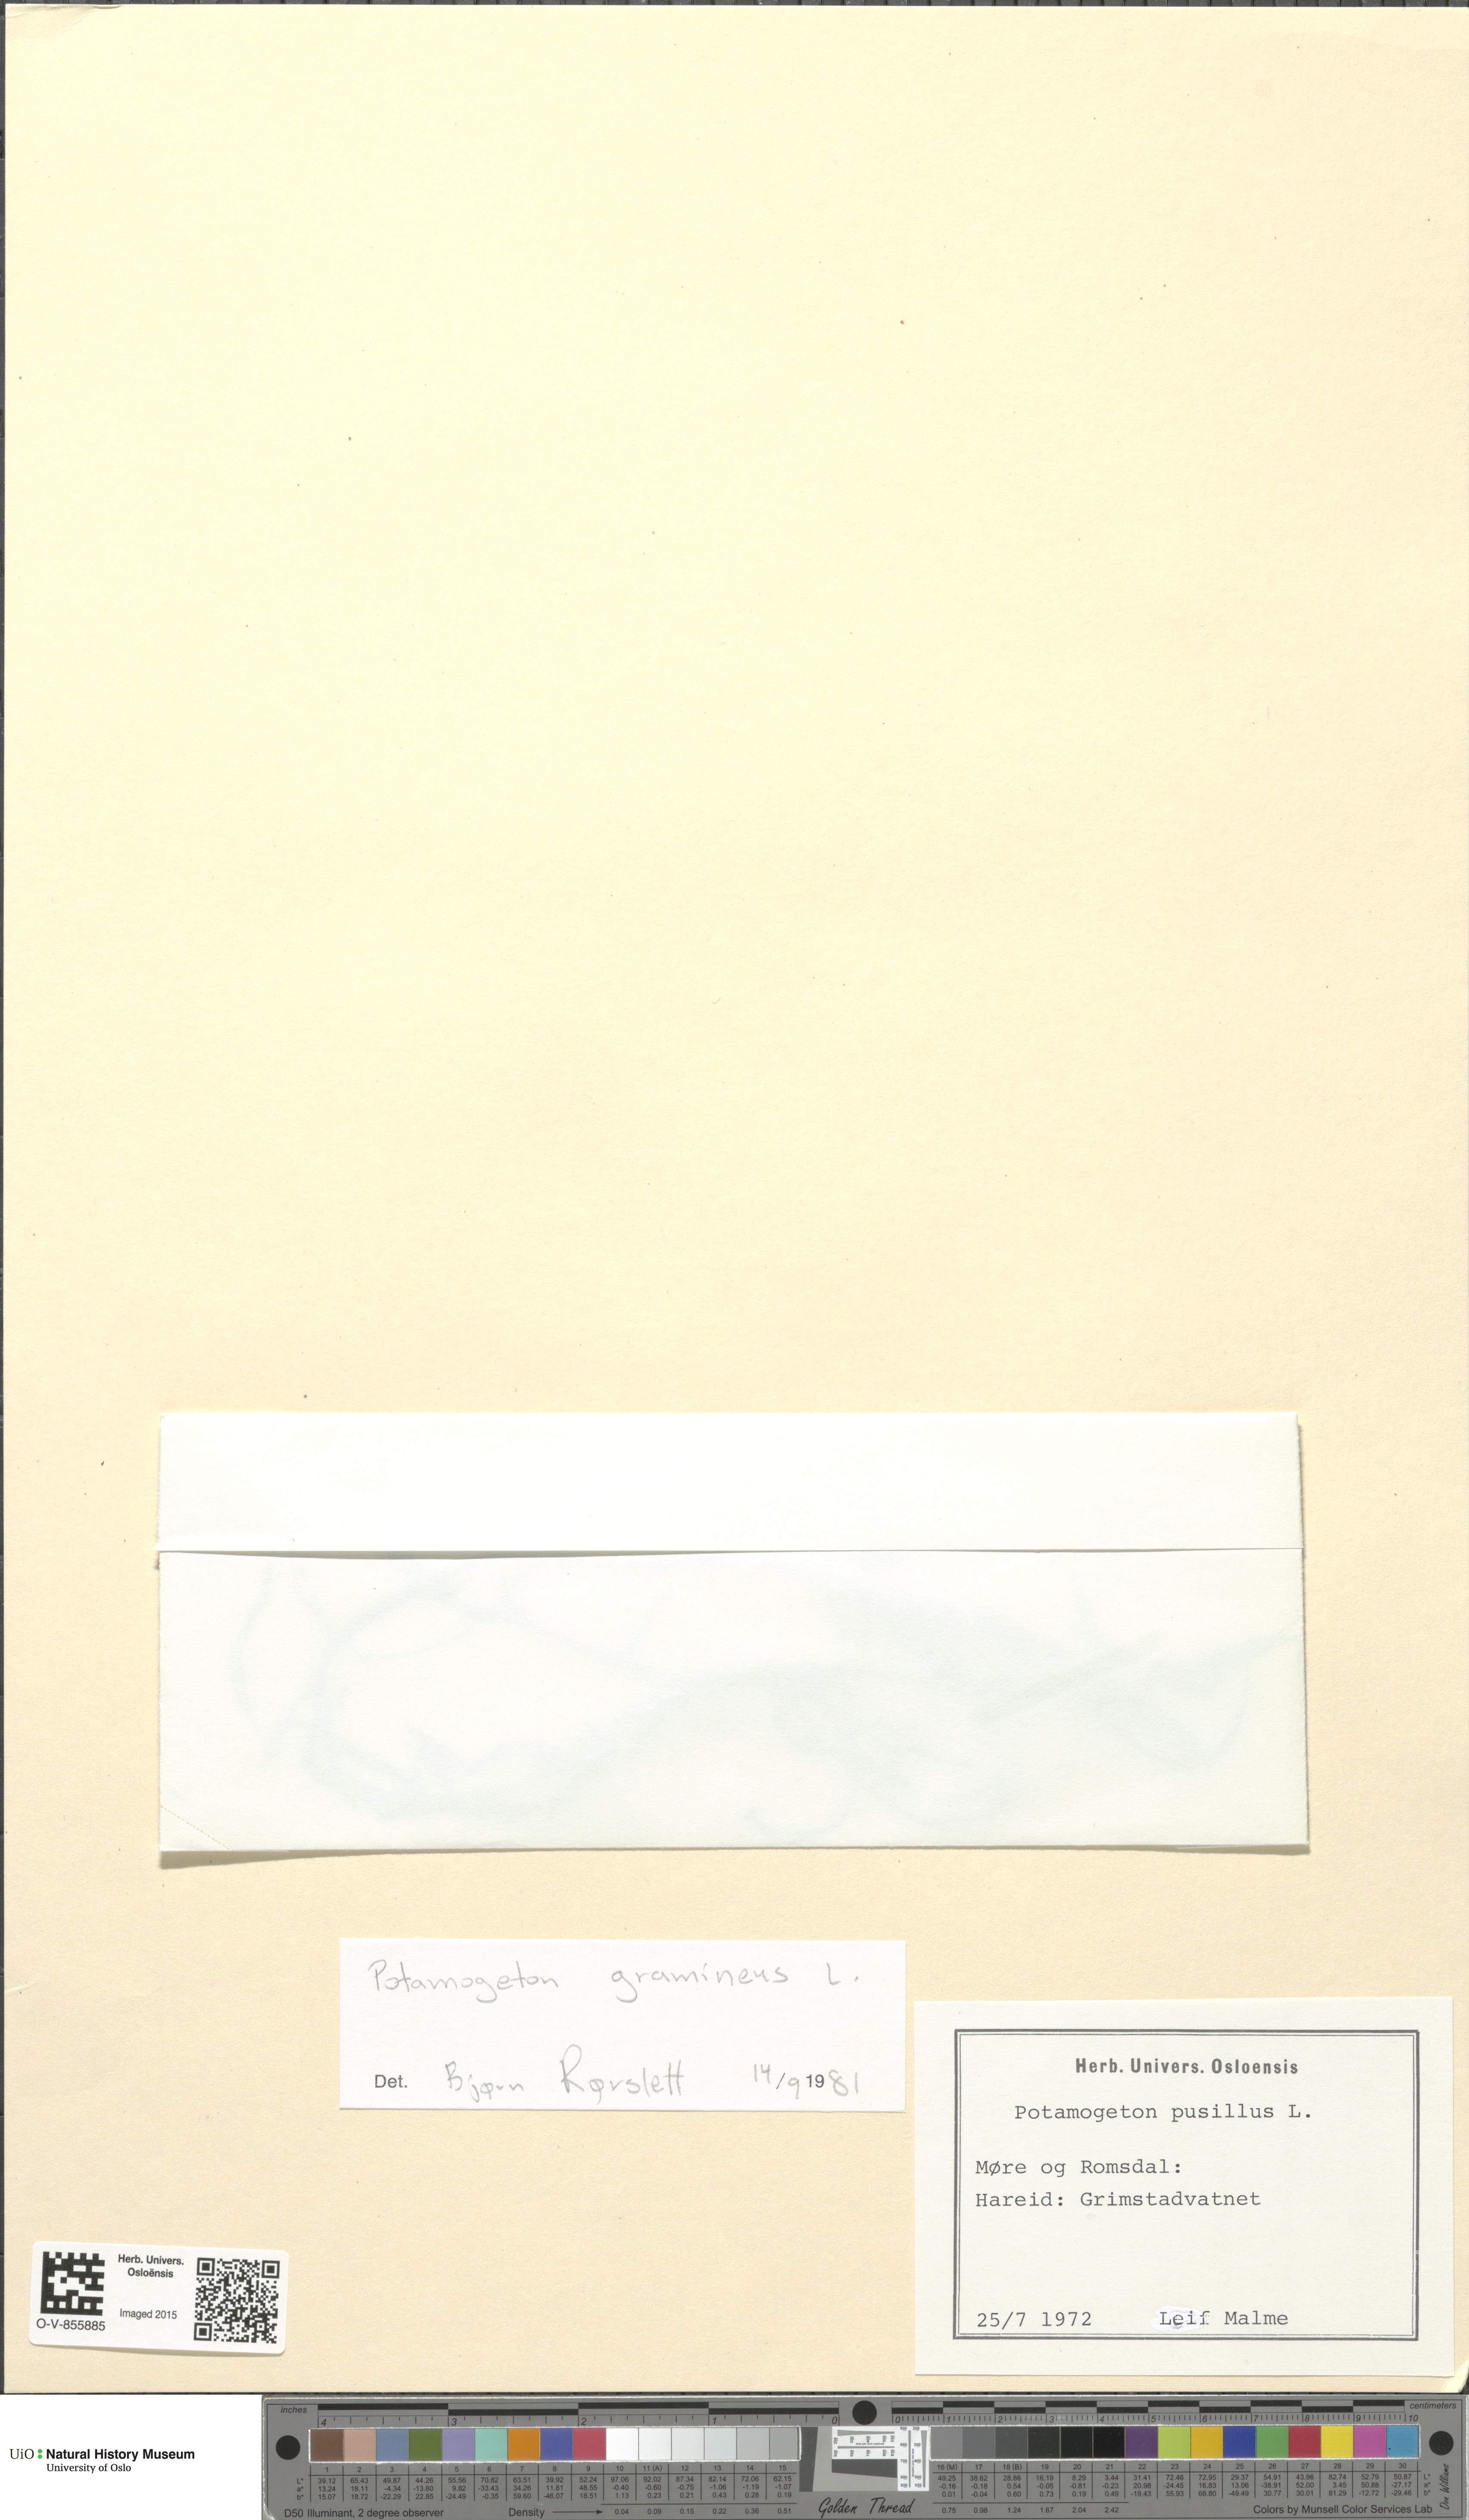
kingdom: Plantae
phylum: Tracheophyta
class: Liliopsida
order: Alismatales
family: Potamogetonaceae
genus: Potamogeton
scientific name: Potamogeton gramineus
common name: Various-leaved pondweed
